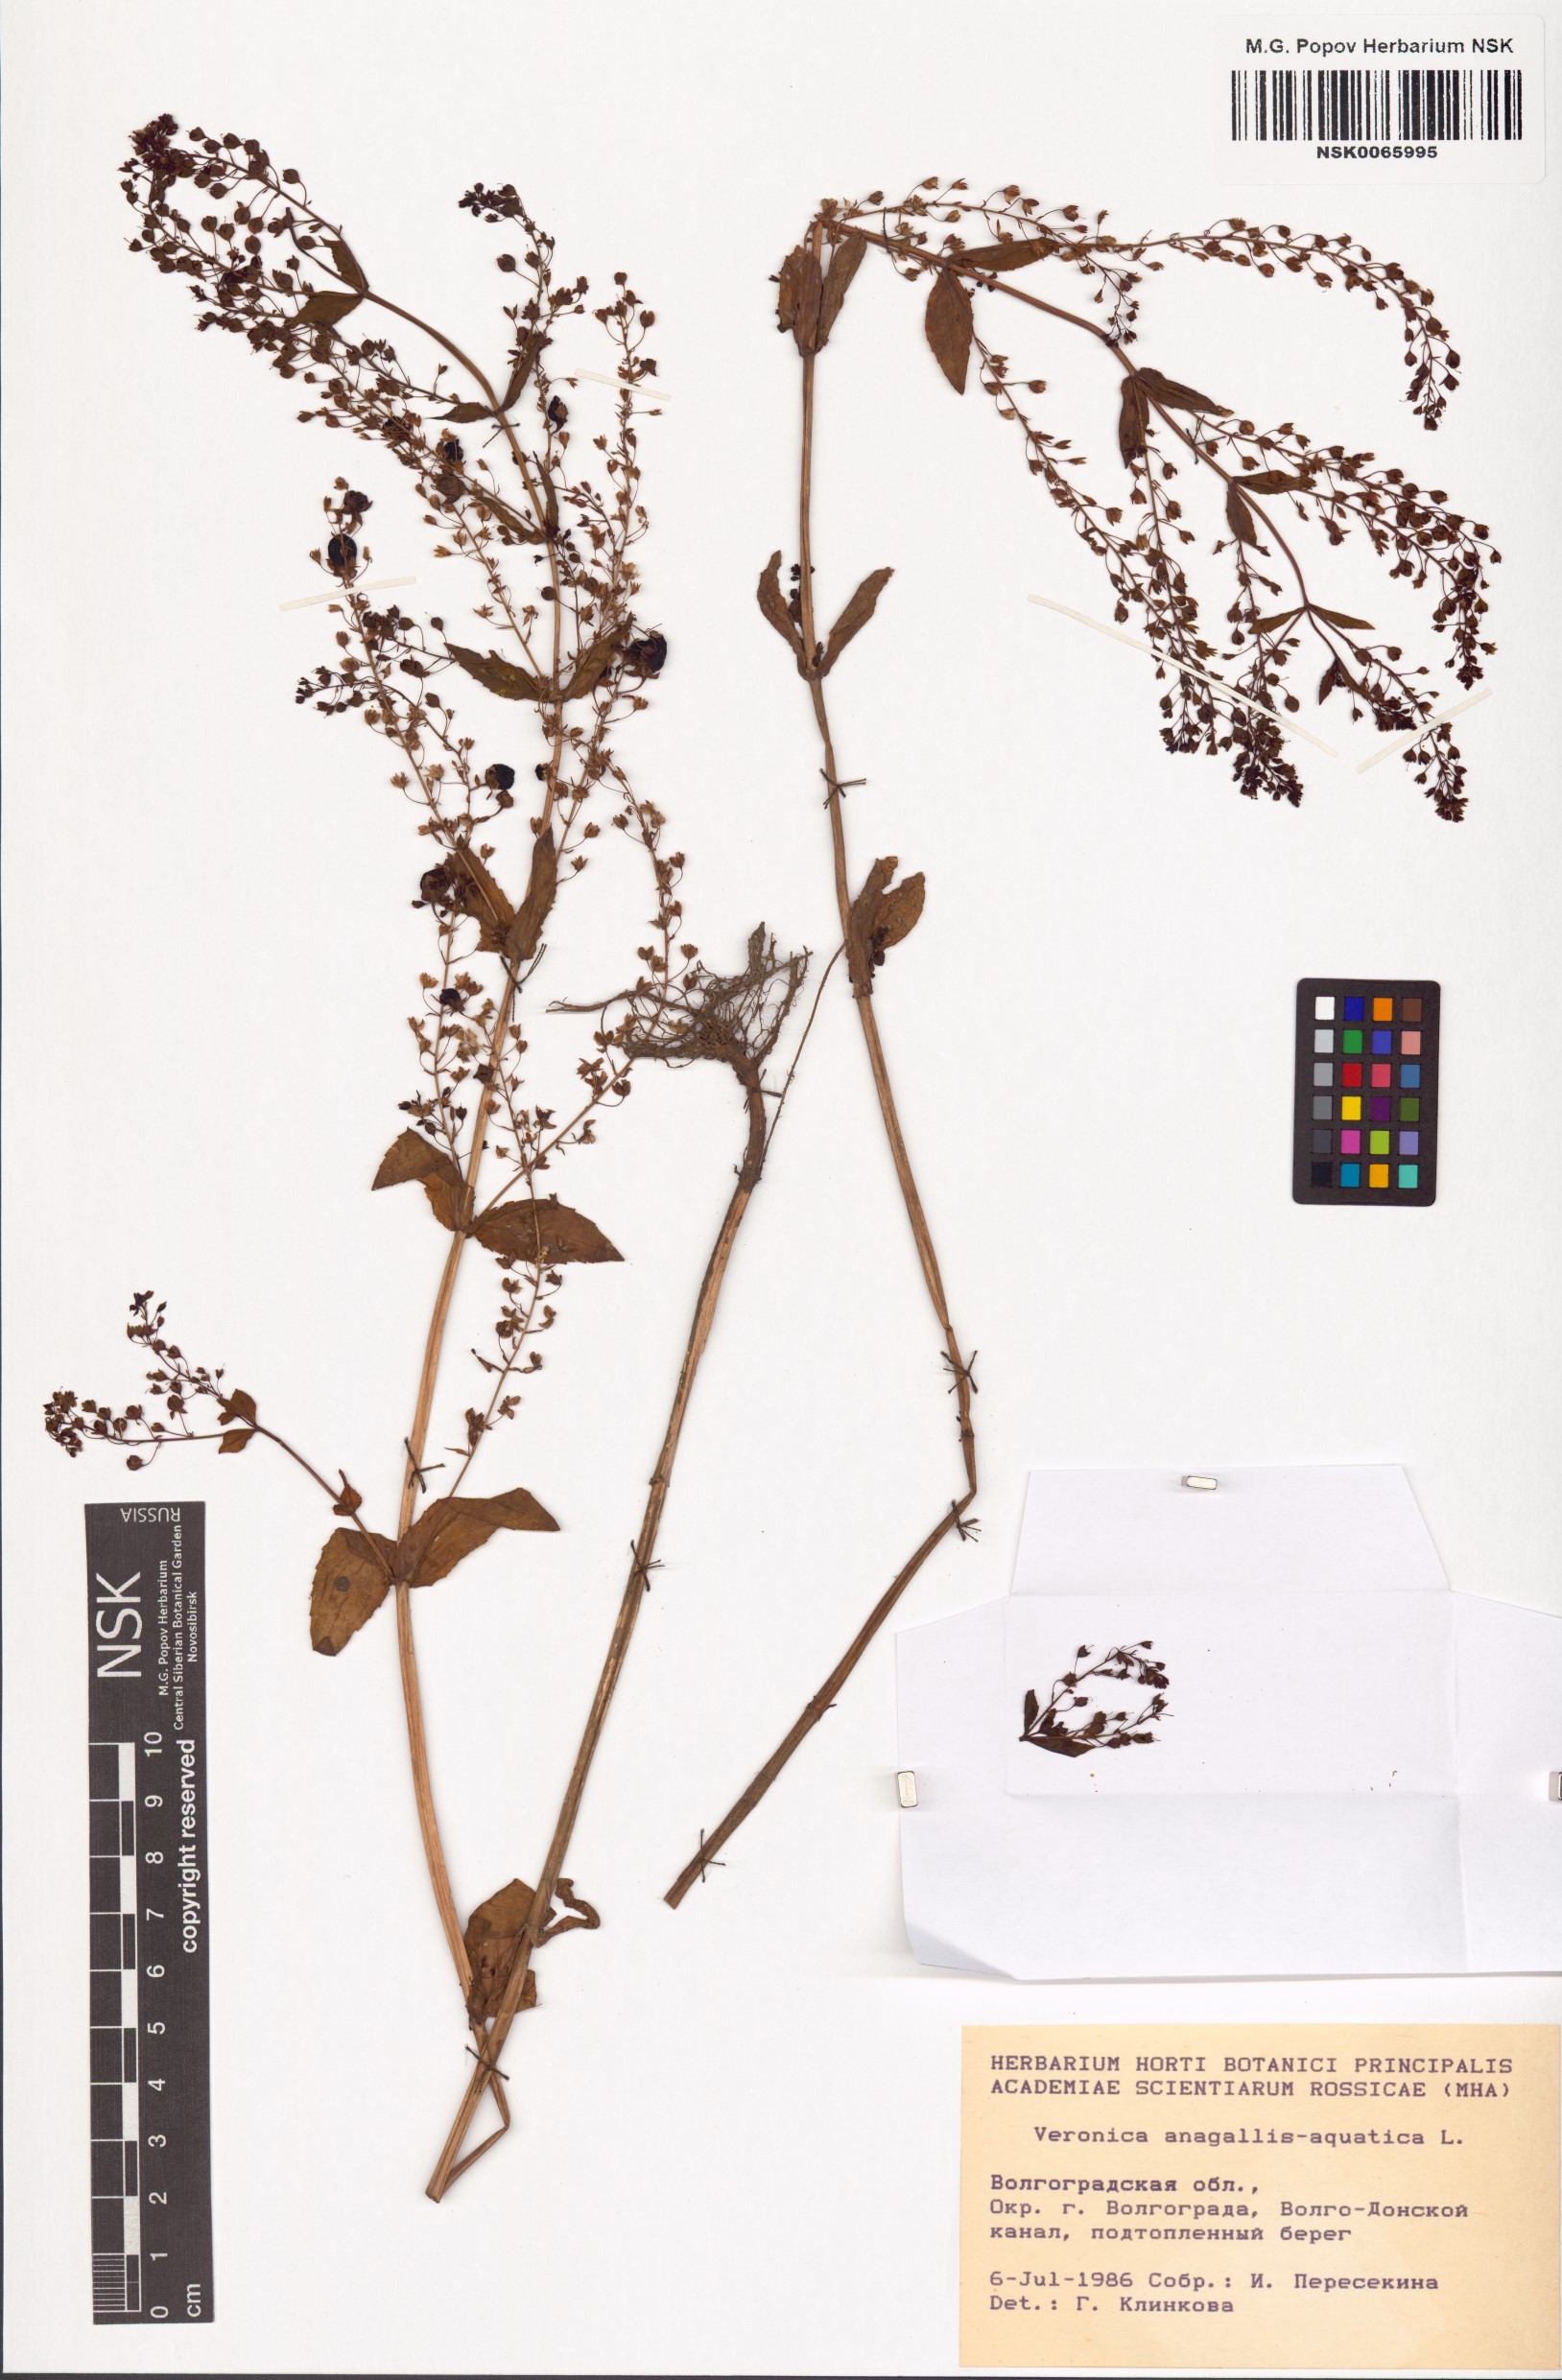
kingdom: Plantae
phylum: Tracheophyta
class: Magnoliopsida
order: Lamiales
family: Plantaginaceae
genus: Veronica
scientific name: Veronica anagallis-aquatica
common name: Water speedwell
